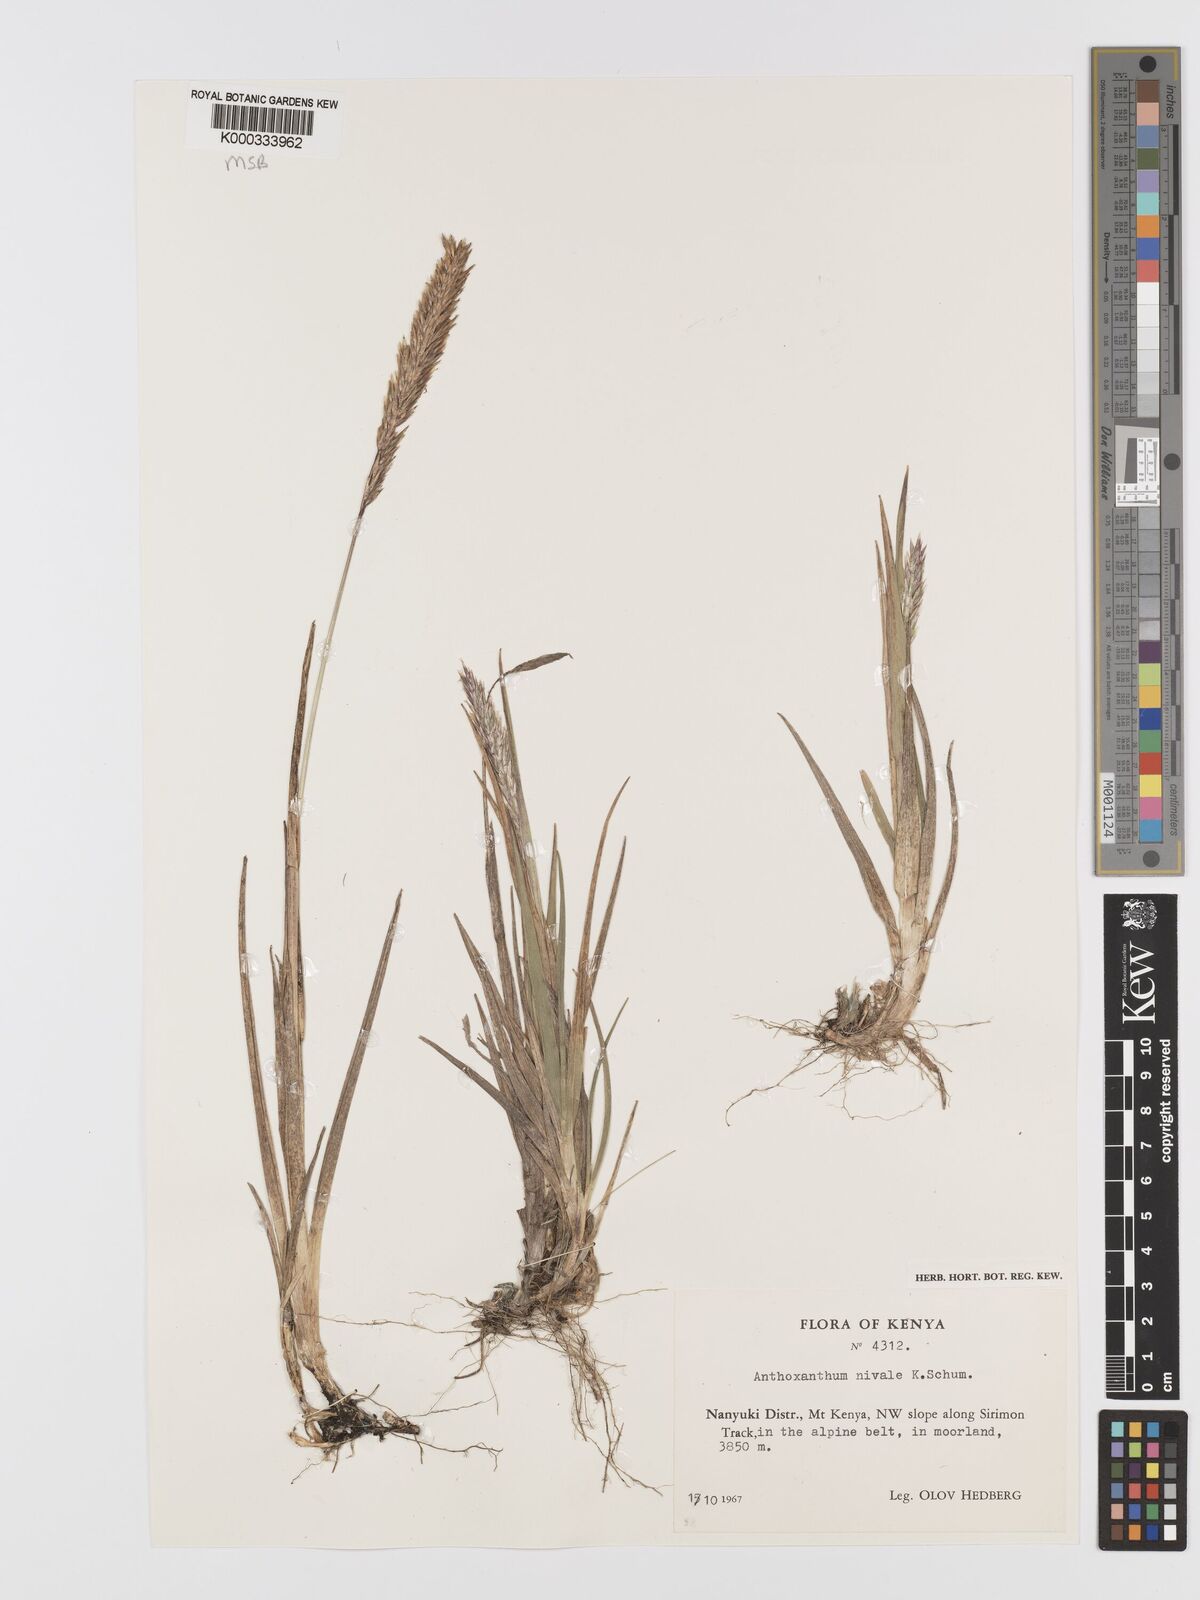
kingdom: Plantae
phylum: Tracheophyta
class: Liliopsida
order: Poales
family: Poaceae
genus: Anthoxanthum
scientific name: Anthoxanthum
